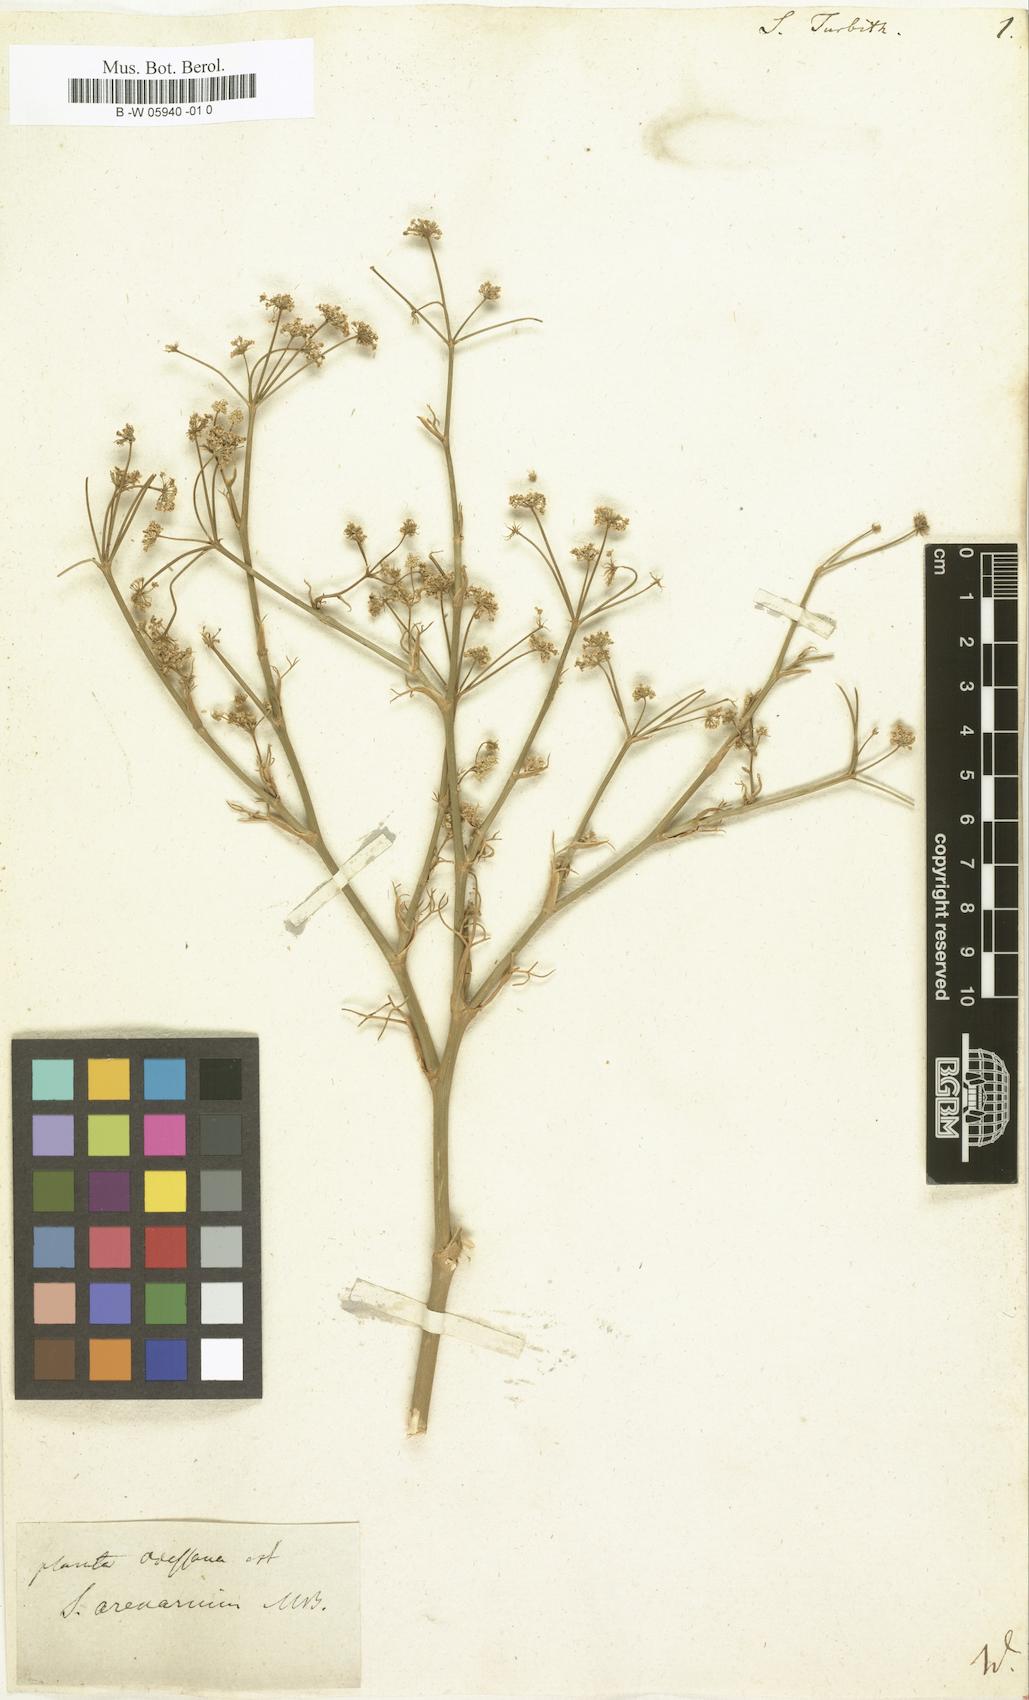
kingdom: Plantae
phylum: Tracheophyta
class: Magnoliopsida
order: Apiales
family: Apiaceae
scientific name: Apiaceae
